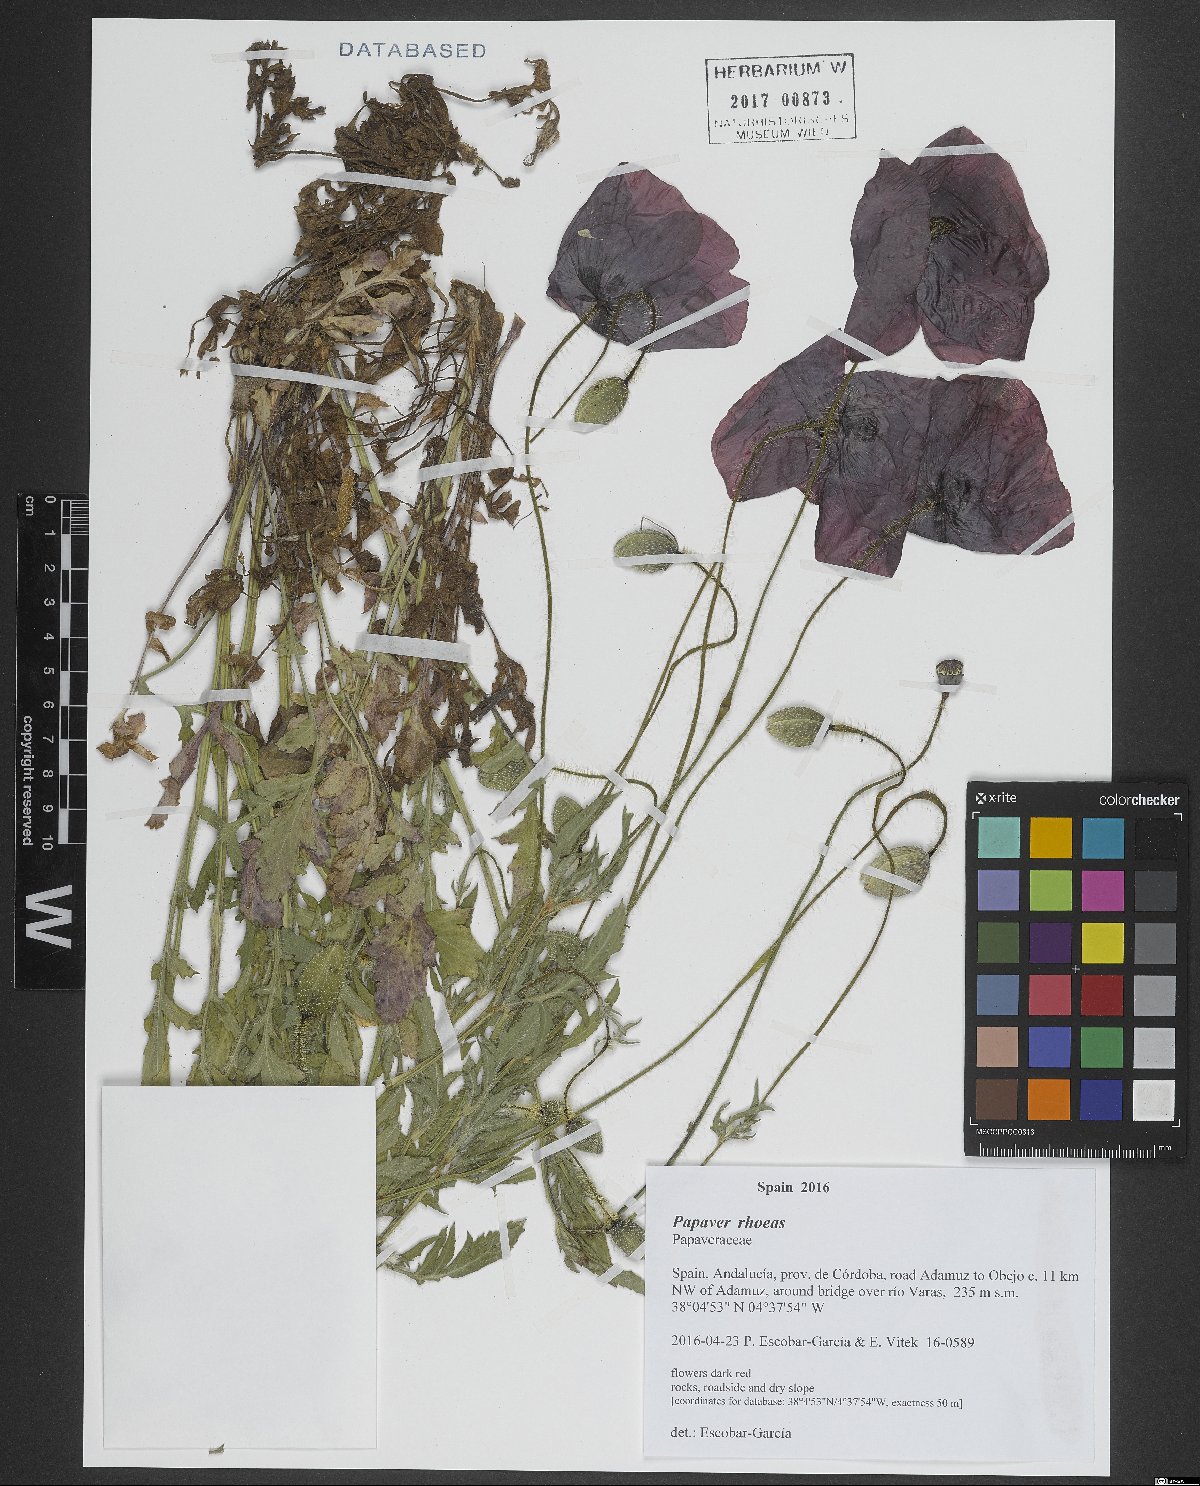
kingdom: Plantae
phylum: Tracheophyta
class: Magnoliopsida
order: Ranunculales
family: Papaveraceae
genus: Papaver
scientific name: Papaver rhoeas
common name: Corn poppy
